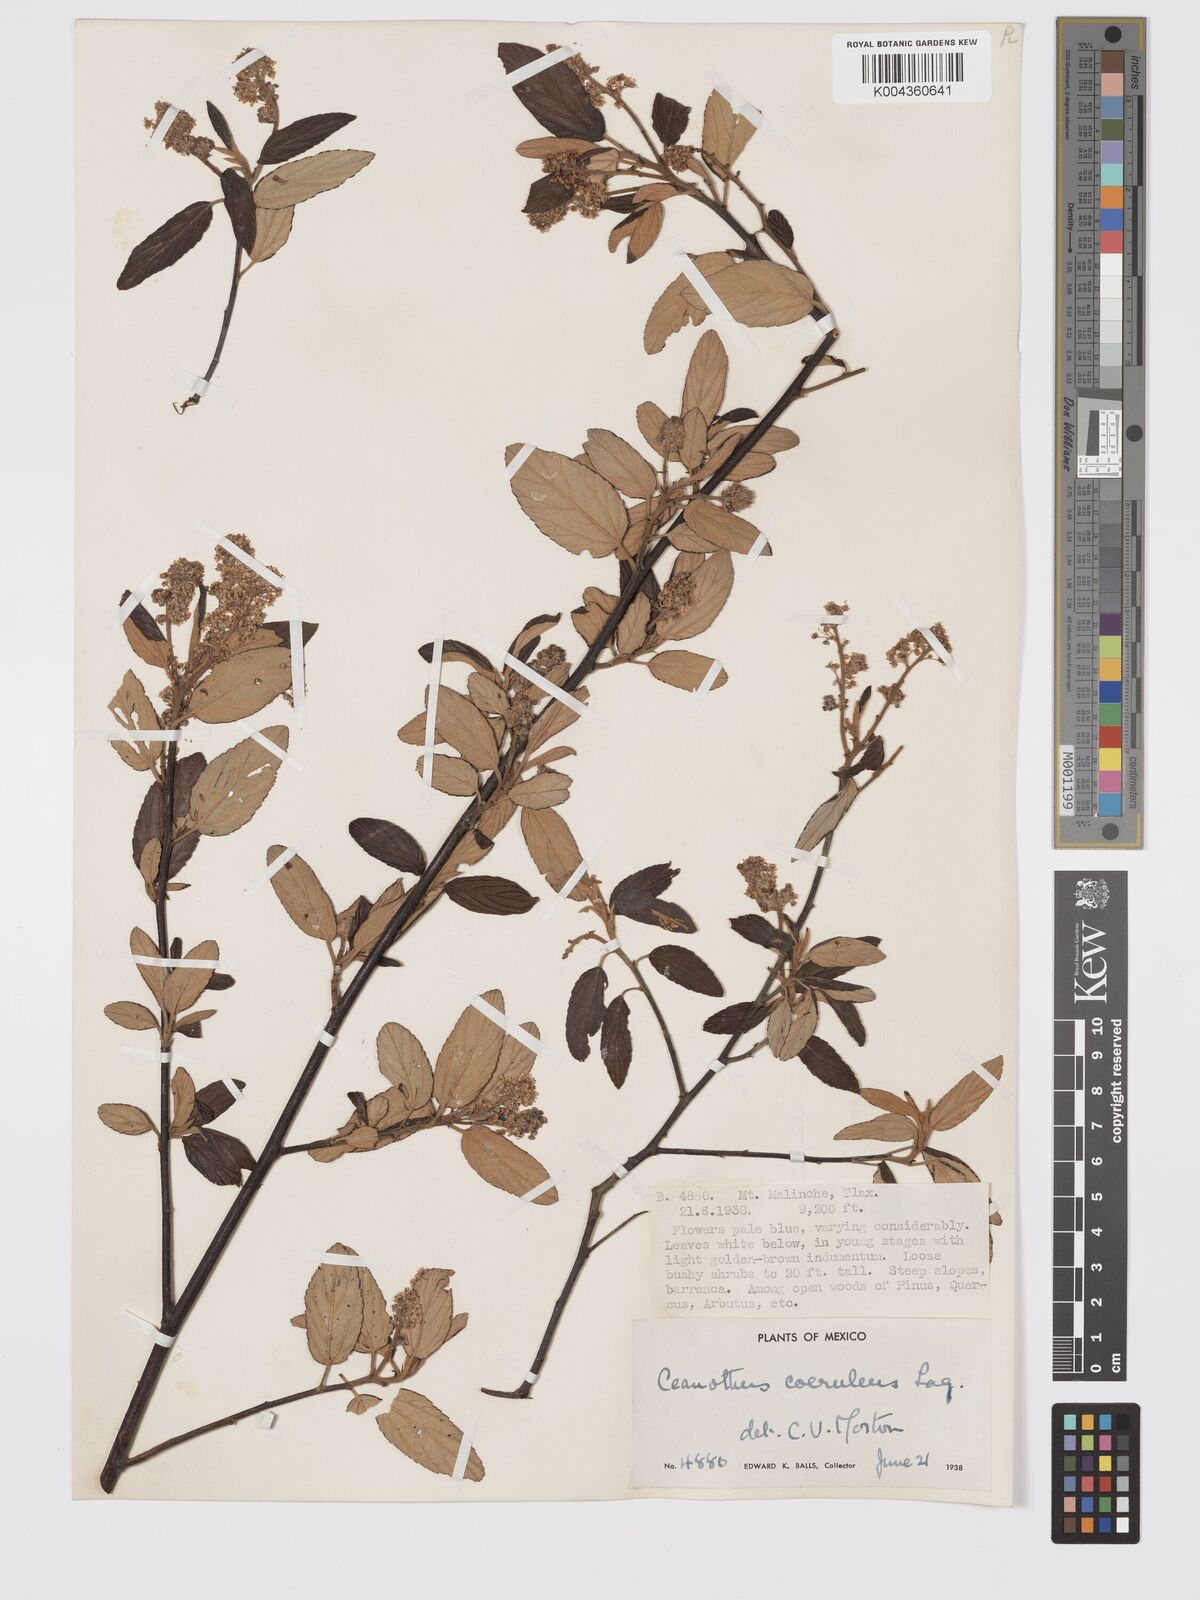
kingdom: Plantae
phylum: Tracheophyta
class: Magnoliopsida
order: Rosales
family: Rhamnaceae
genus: Ceanothus
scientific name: Ceanothus caeruleus
